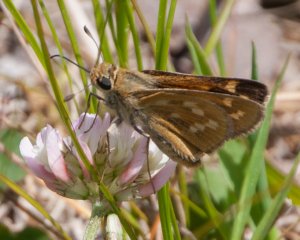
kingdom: Animalia
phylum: Arthropoda
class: Insecta
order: Lepidoptera
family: Hesperiidae
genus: Hesperia
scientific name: Hesperia sassacus
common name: Sassacus Skipper
